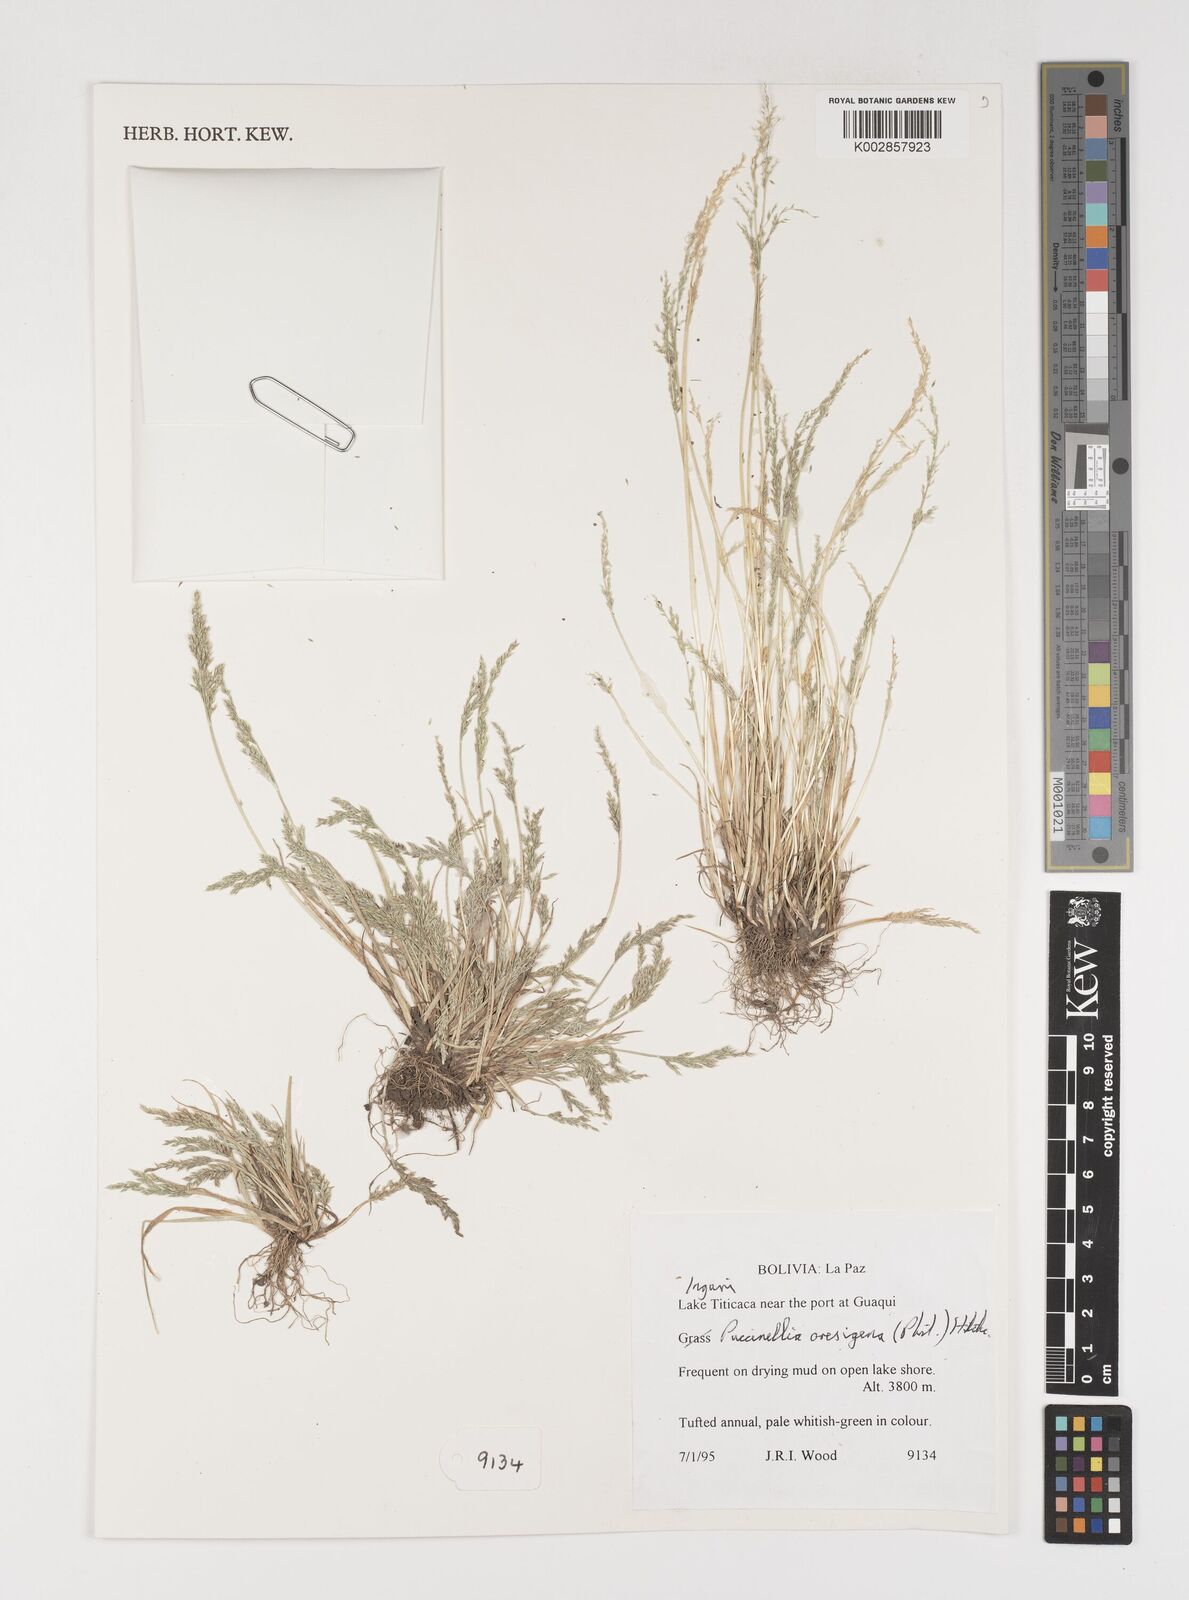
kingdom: Plantae
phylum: Tracheophyta
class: Liliopsida
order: Poales
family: Poaceae
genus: Puccinellia
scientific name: Puccinellia frigida
